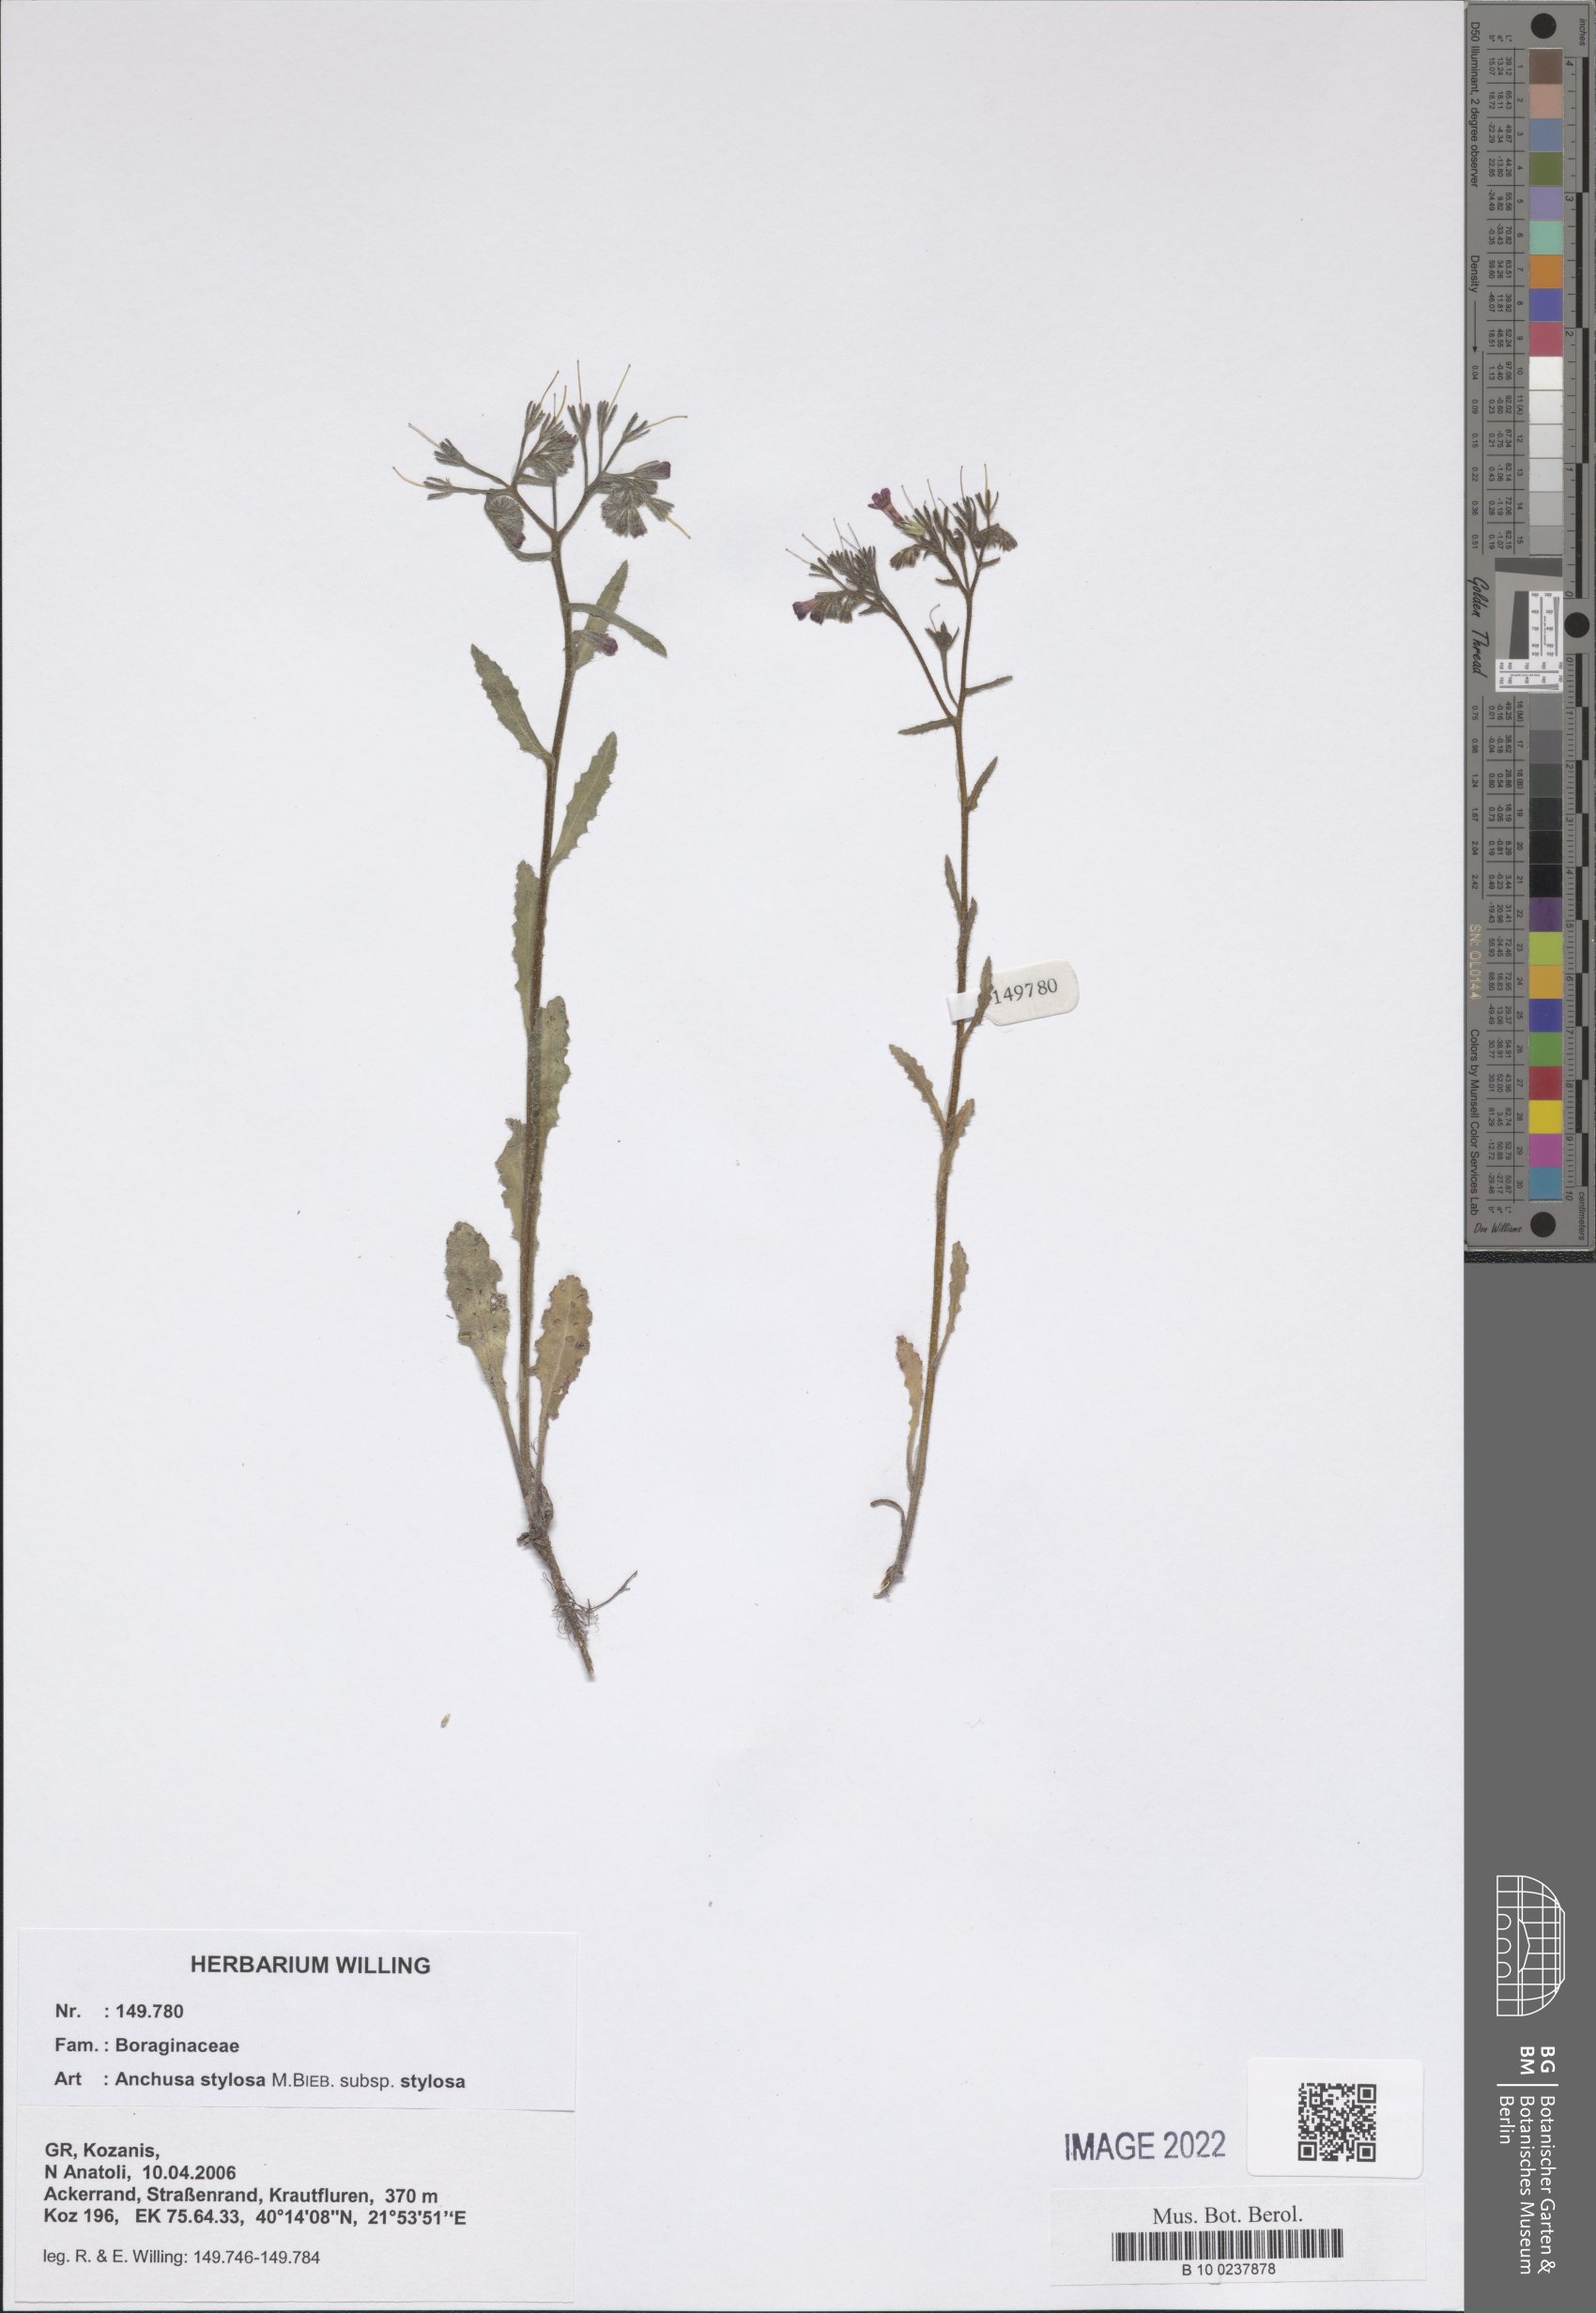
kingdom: Plantae
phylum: Tracheophyta
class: Magnoliopsida
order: Boraginales
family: Boraginaceae
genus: Anchusa
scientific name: Anchusa stylosa
